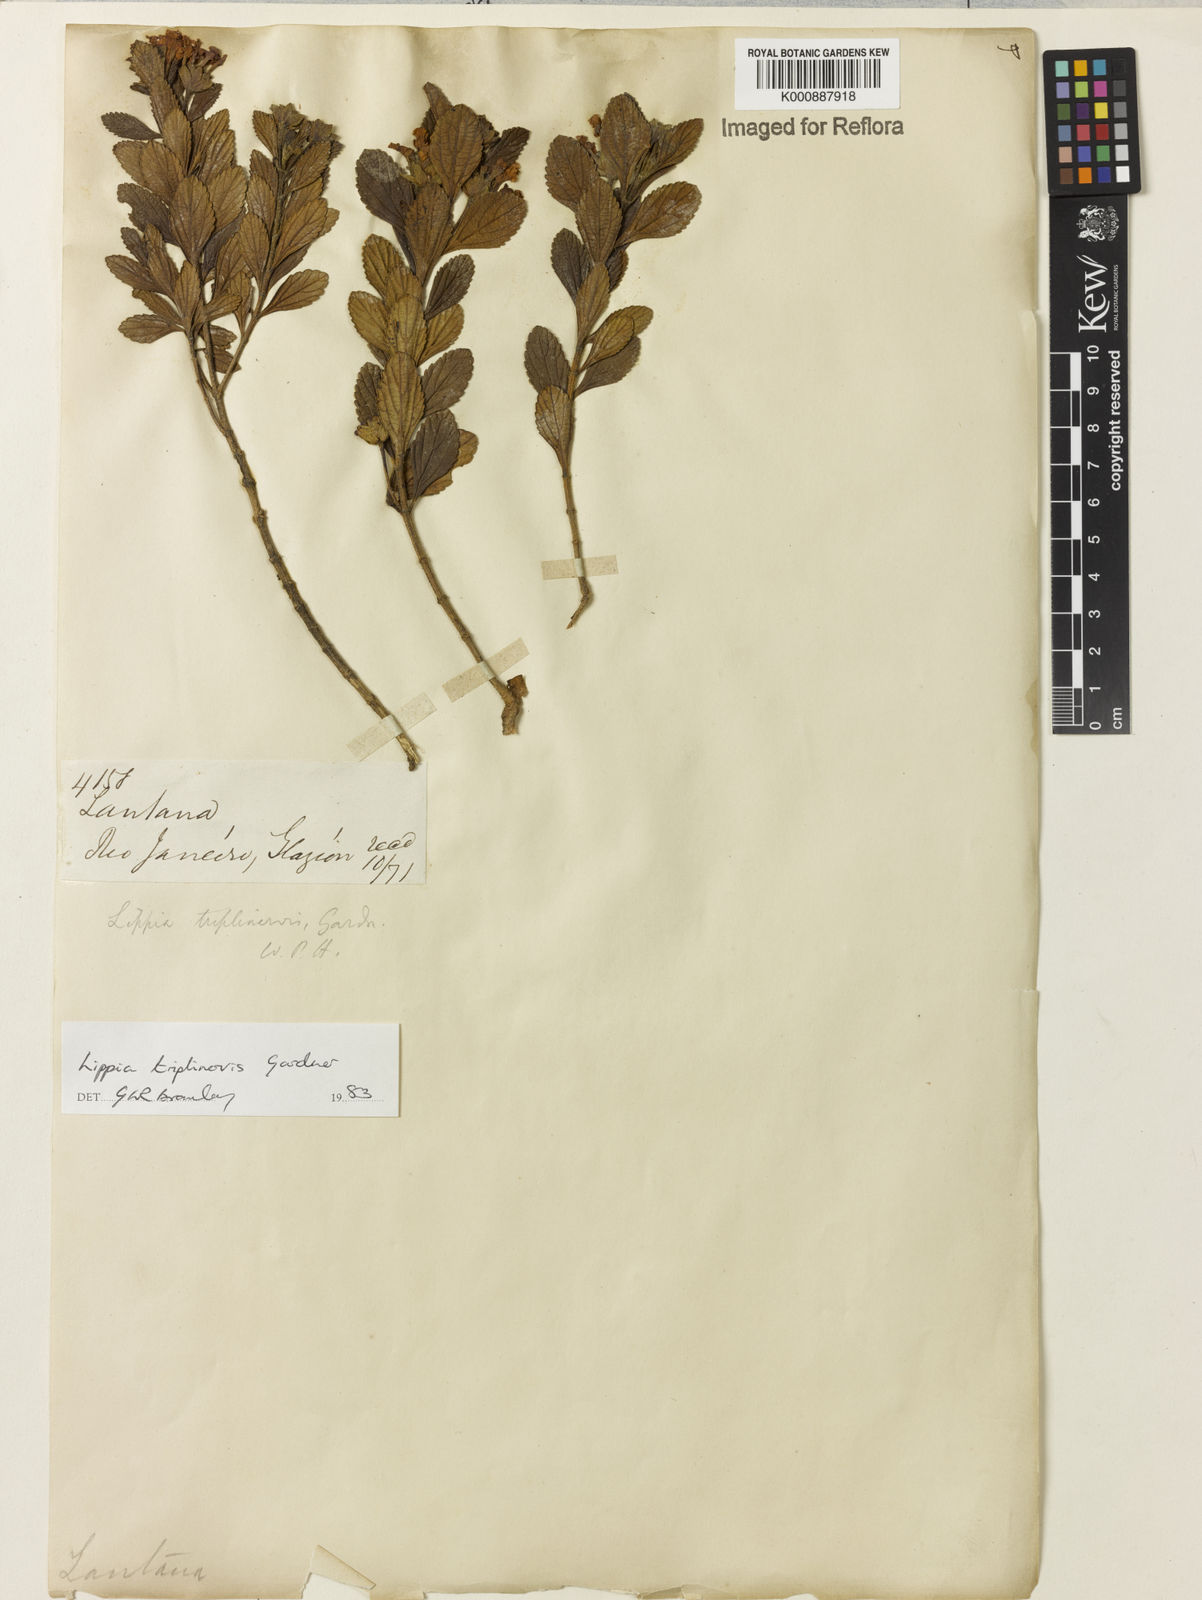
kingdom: Plantae
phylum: Tracheophyta
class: Magnoliopsida
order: Lamiales
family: Verbenaceae
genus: Lippia
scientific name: Lippia triplinervis
